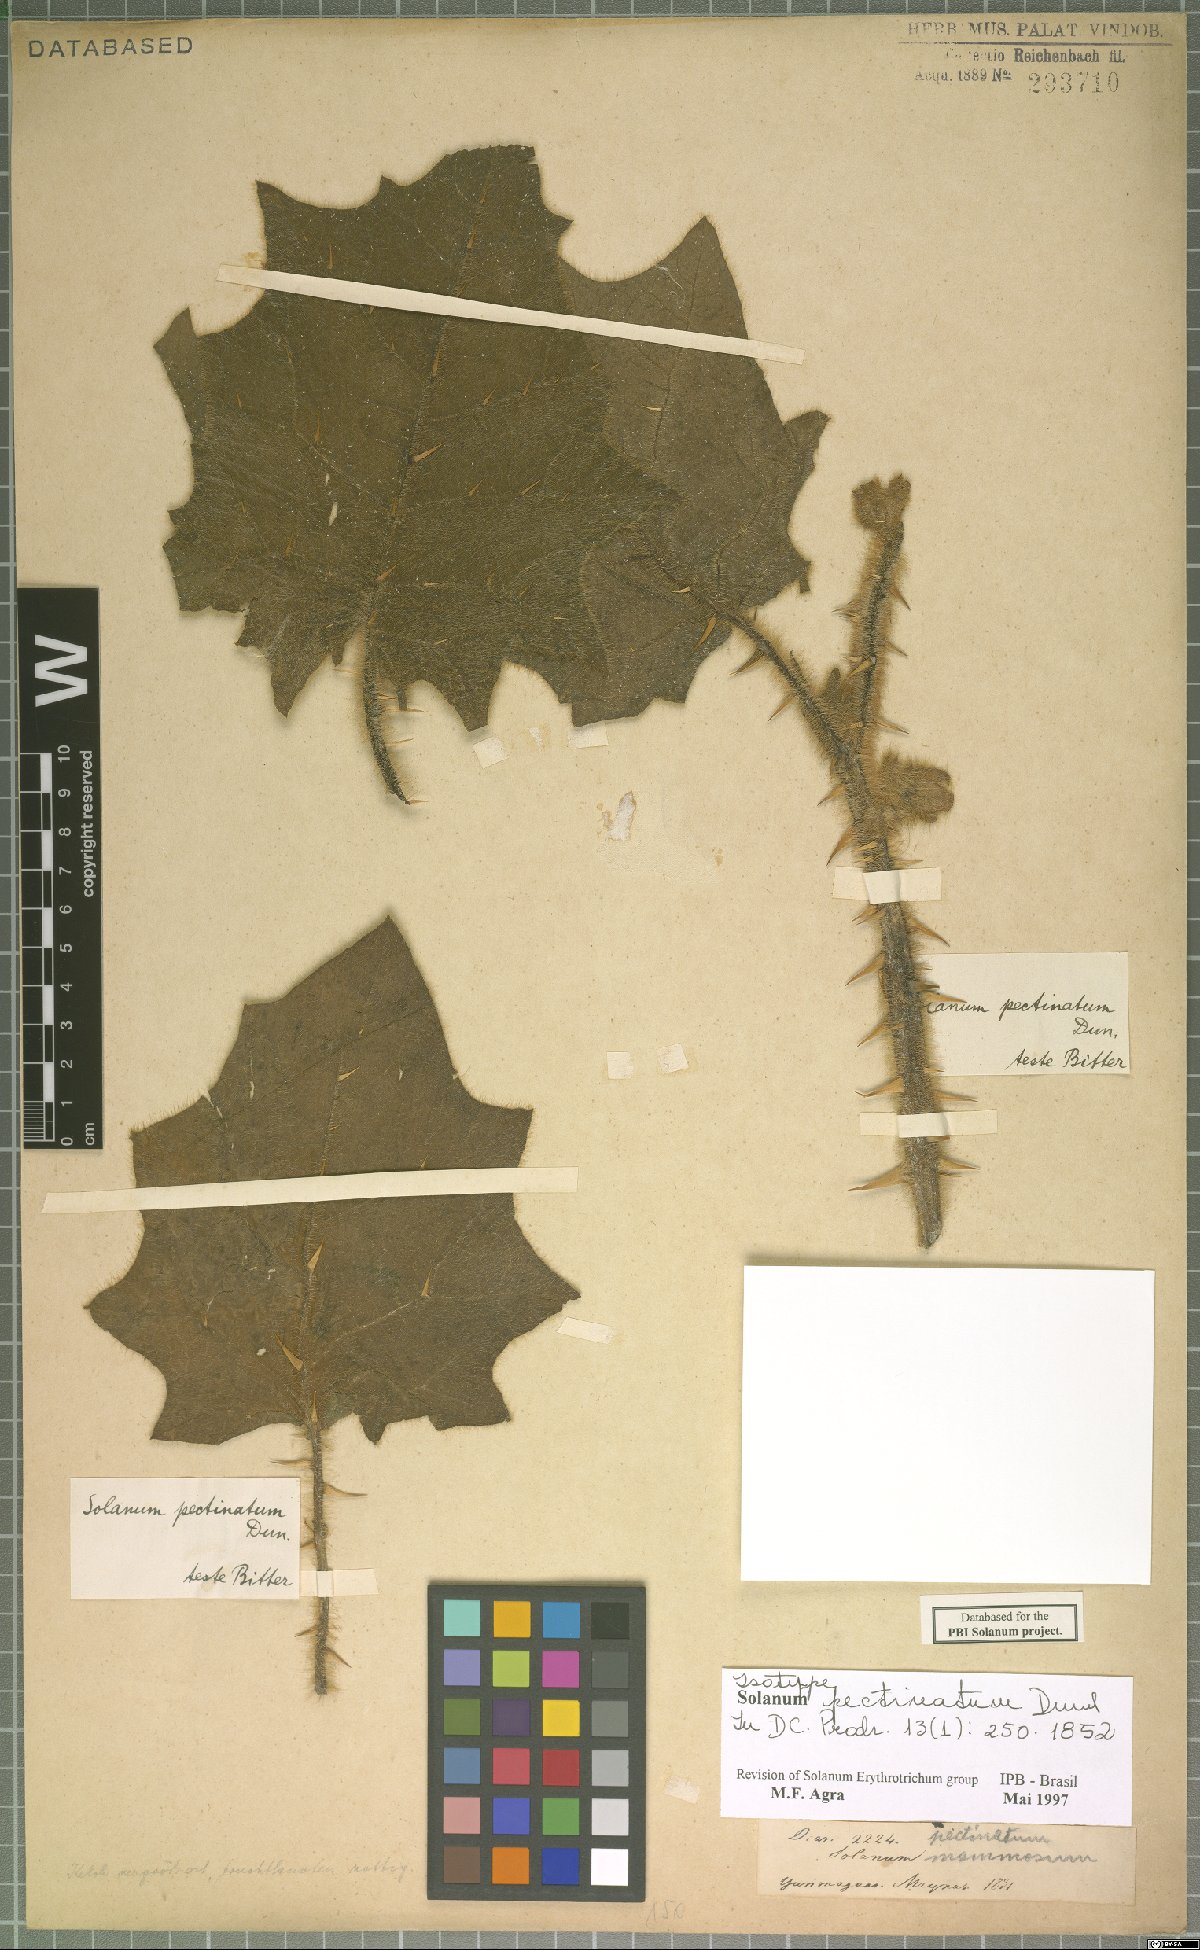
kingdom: Plantae
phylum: Tracheophyta
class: Magnoliopsida
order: Solanales
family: Solanaceae
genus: Solanum
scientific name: Solanum pectinatum
